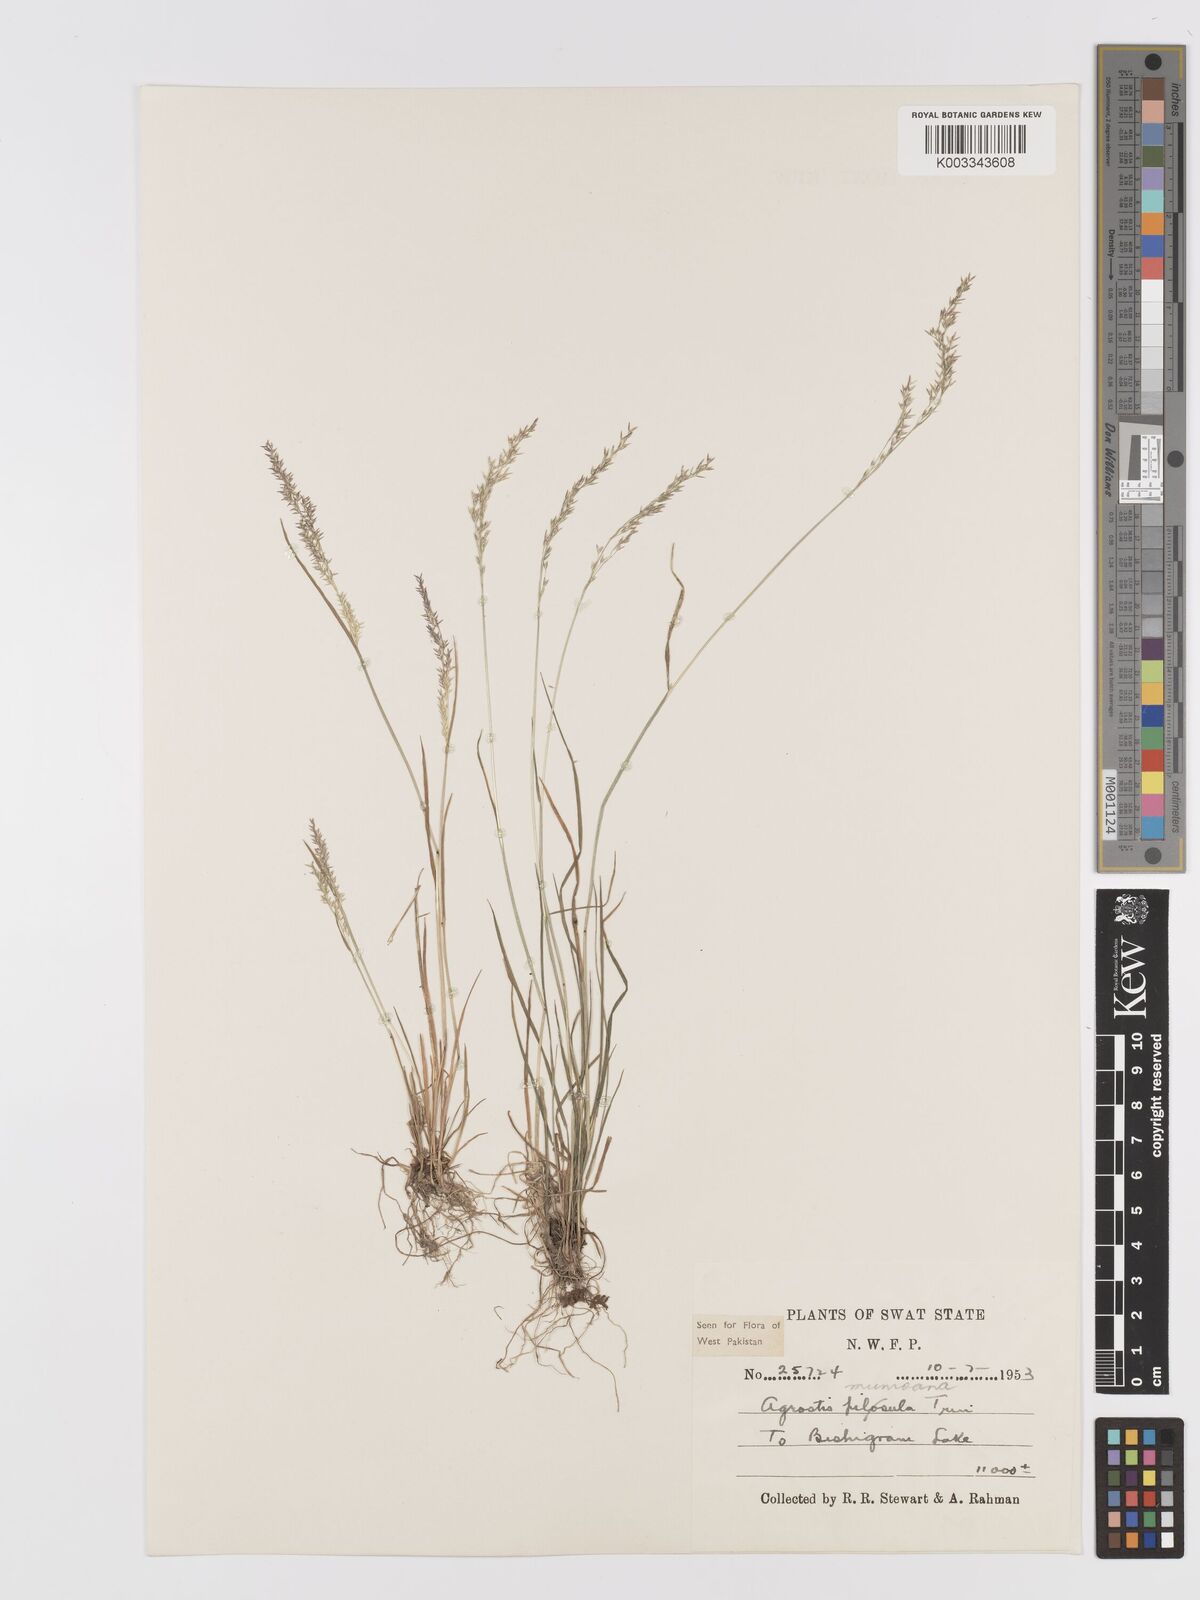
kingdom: Plantae
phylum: Tracheophyta
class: Liliopsida
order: Poales
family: Poaceae
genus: Agrostis
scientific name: Agrostis munroana
